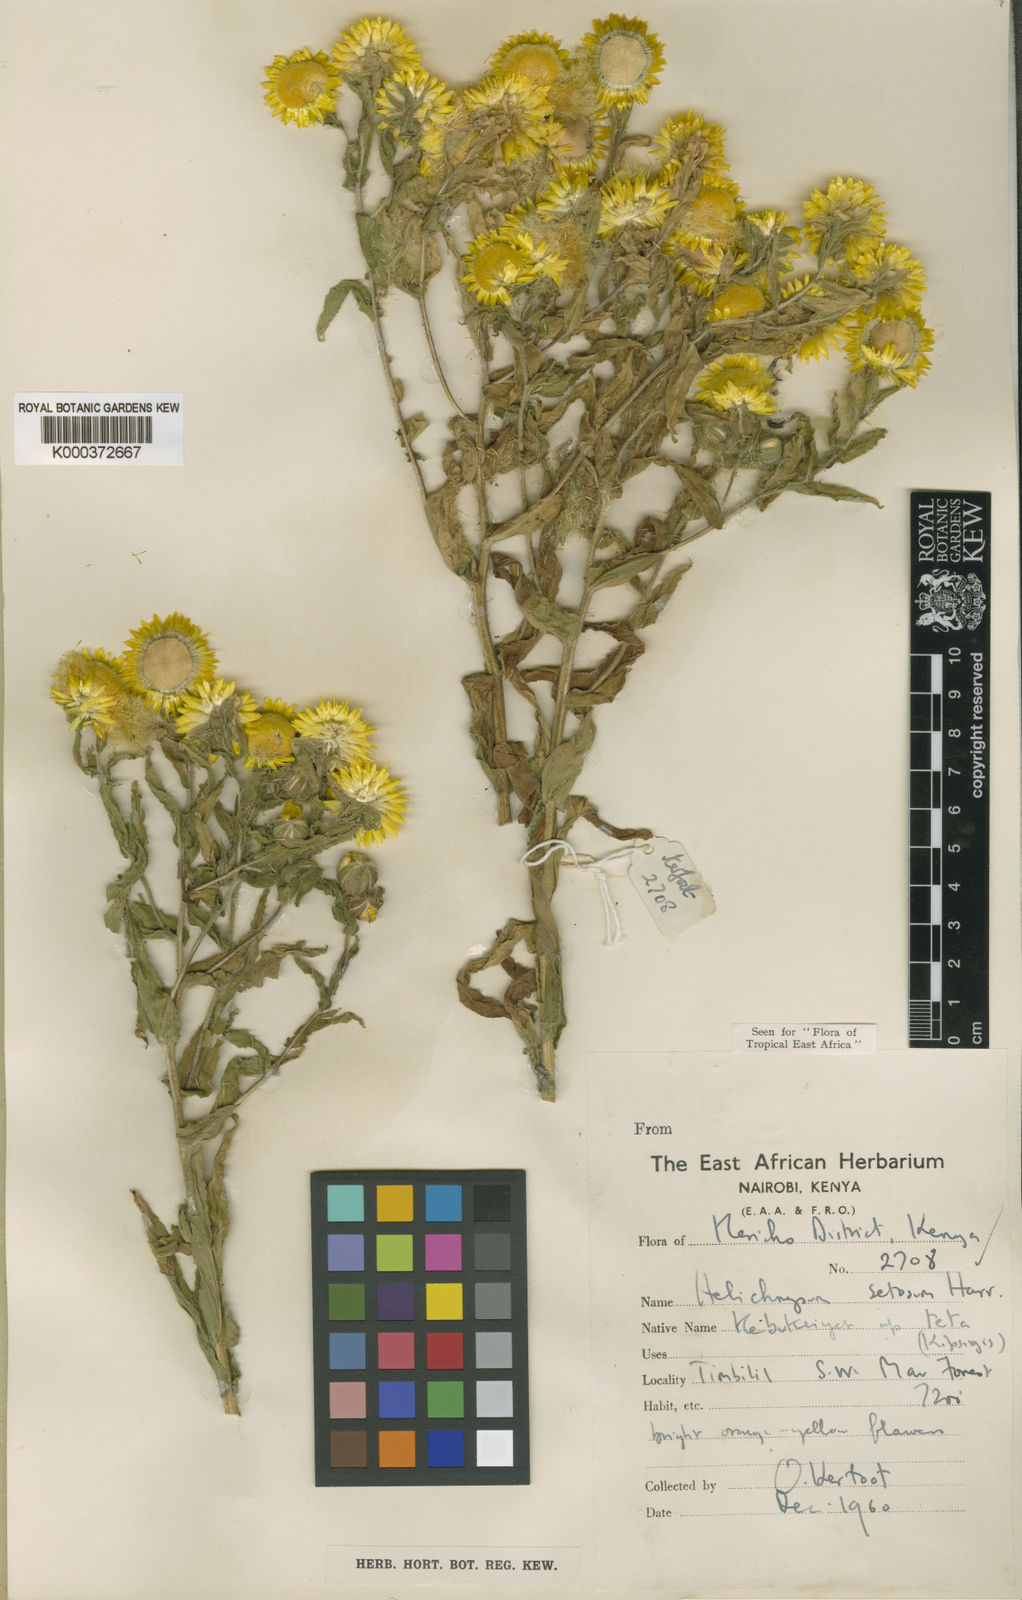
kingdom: Plantae
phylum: Tracheophyta
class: Magnoliopsida
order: Asterales
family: Asteraceae
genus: Helichrysum
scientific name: Helichrysum setosum
